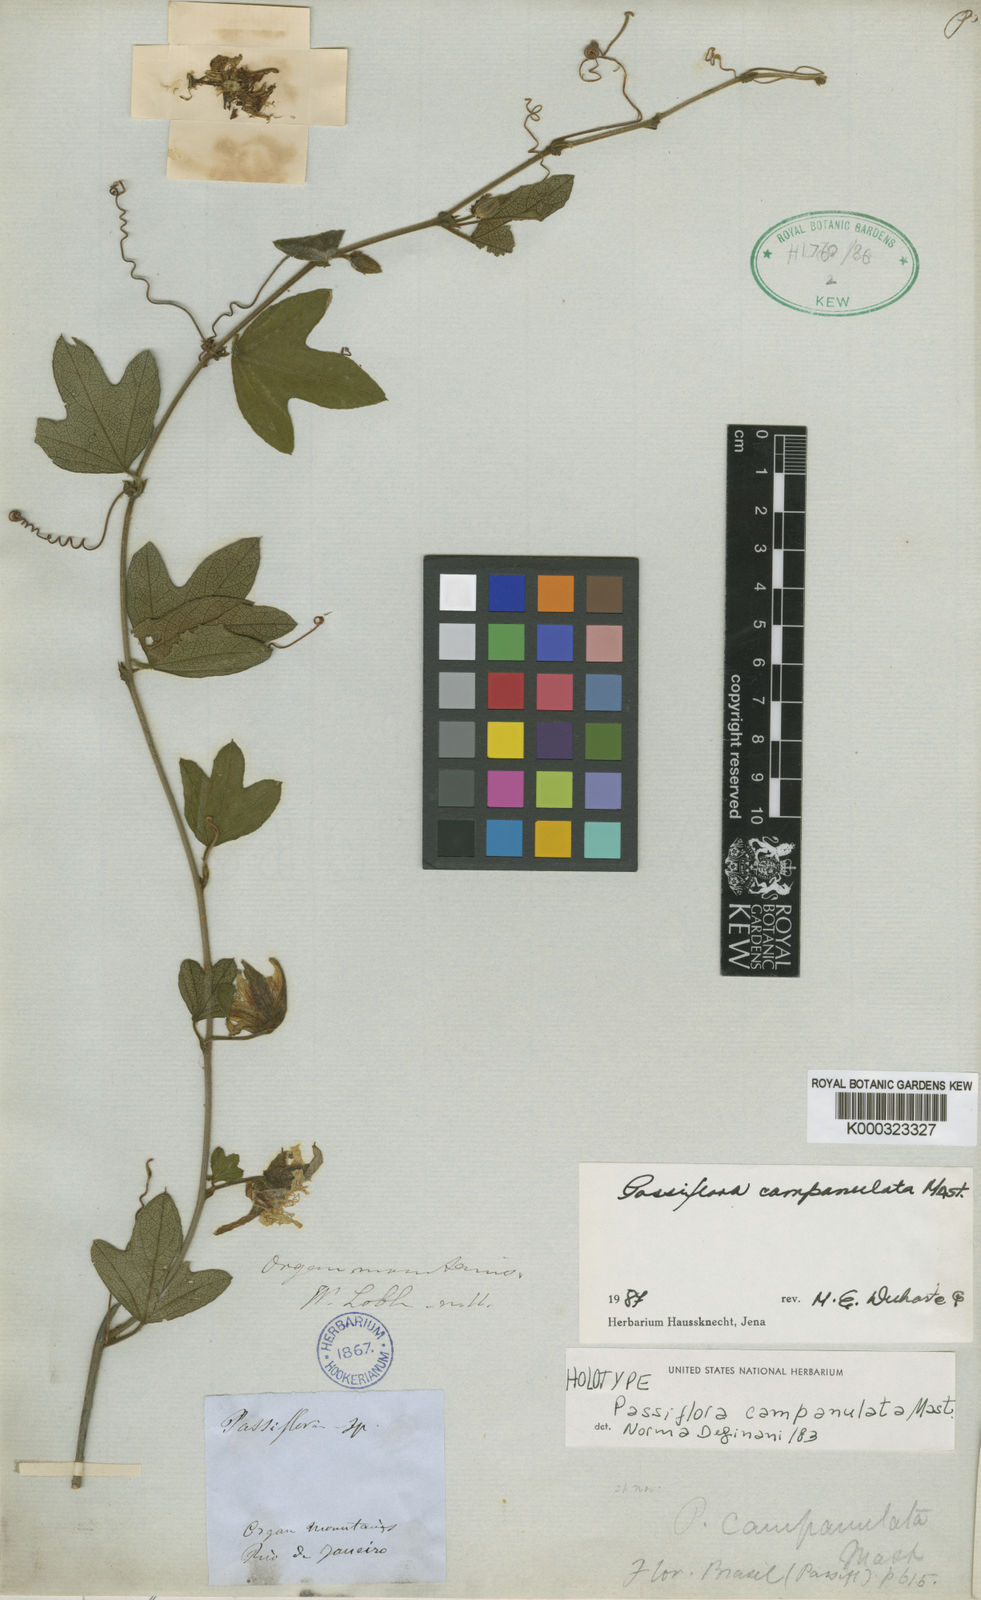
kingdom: Plantae
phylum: Tracheophyta
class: Magnoliopsida
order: Malpighiales
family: Passifloraceae
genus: Passiflora
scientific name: Passiflora campanulata
